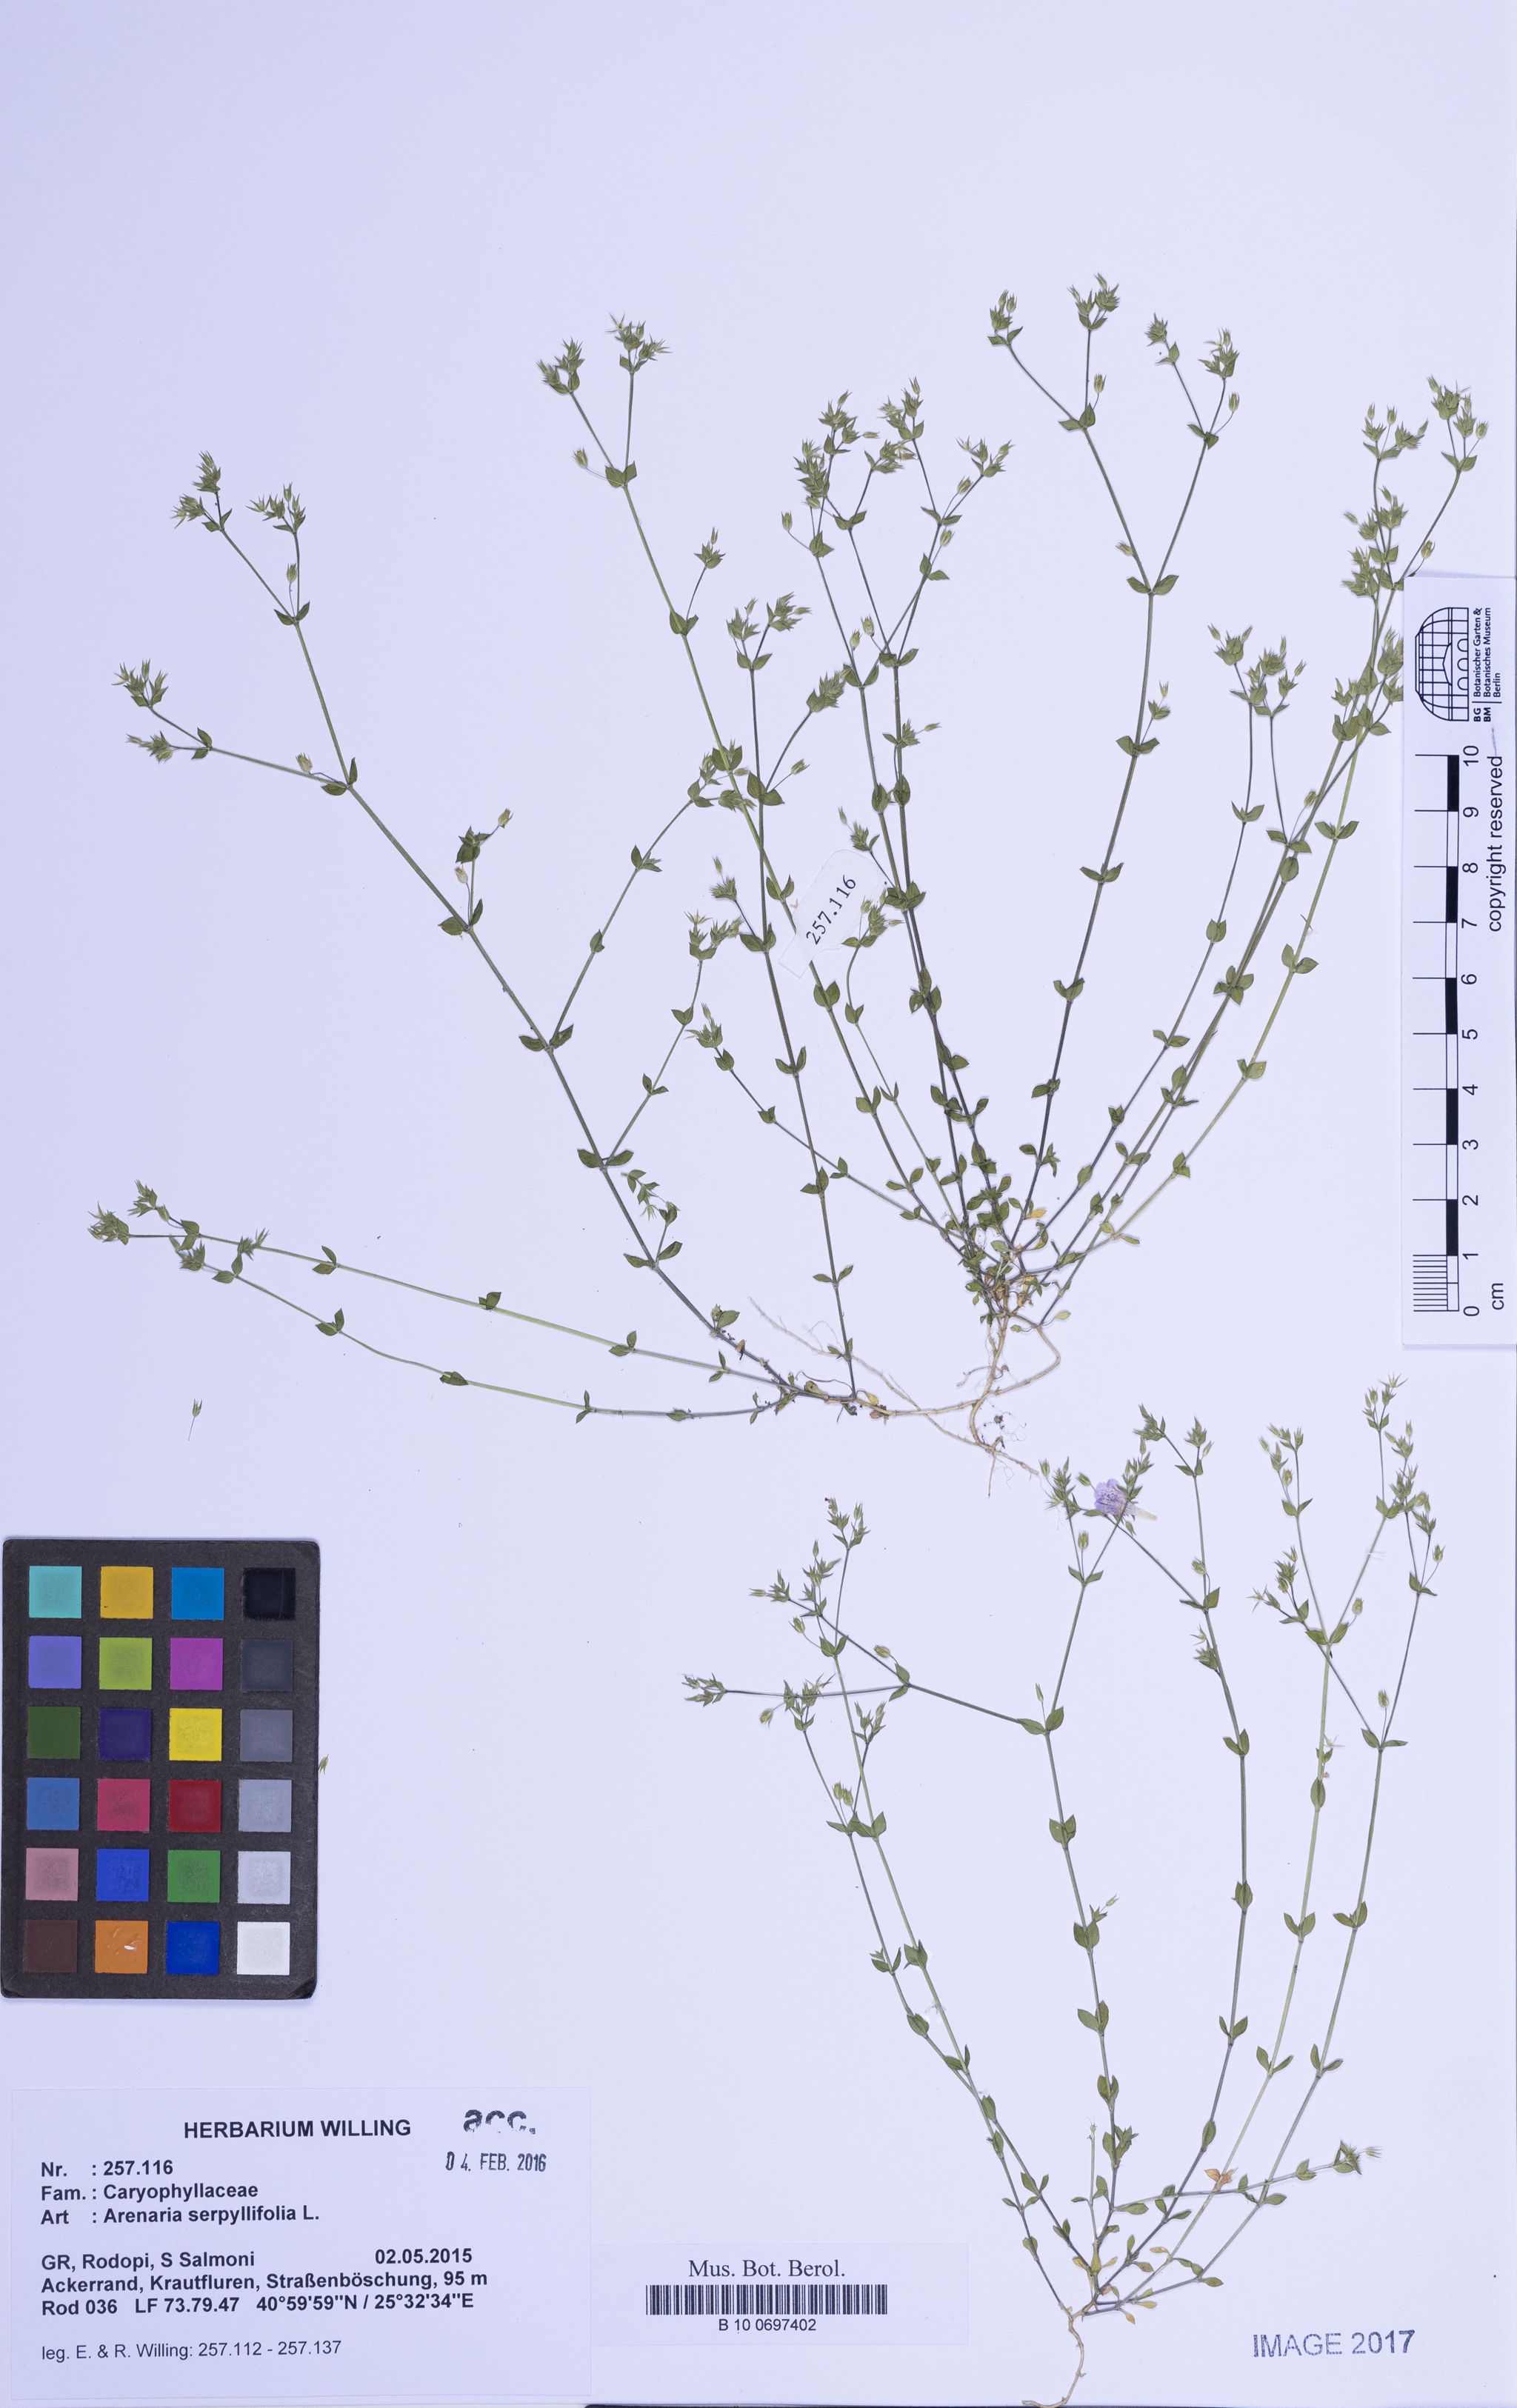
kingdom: Plantae
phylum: Tracheophyta
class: Magnoliopsida
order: Caryophyllales
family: Caryophyllaceae
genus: Arenaria
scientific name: Arenaria serpyllifolia
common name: Thyme-leaved sandwort
